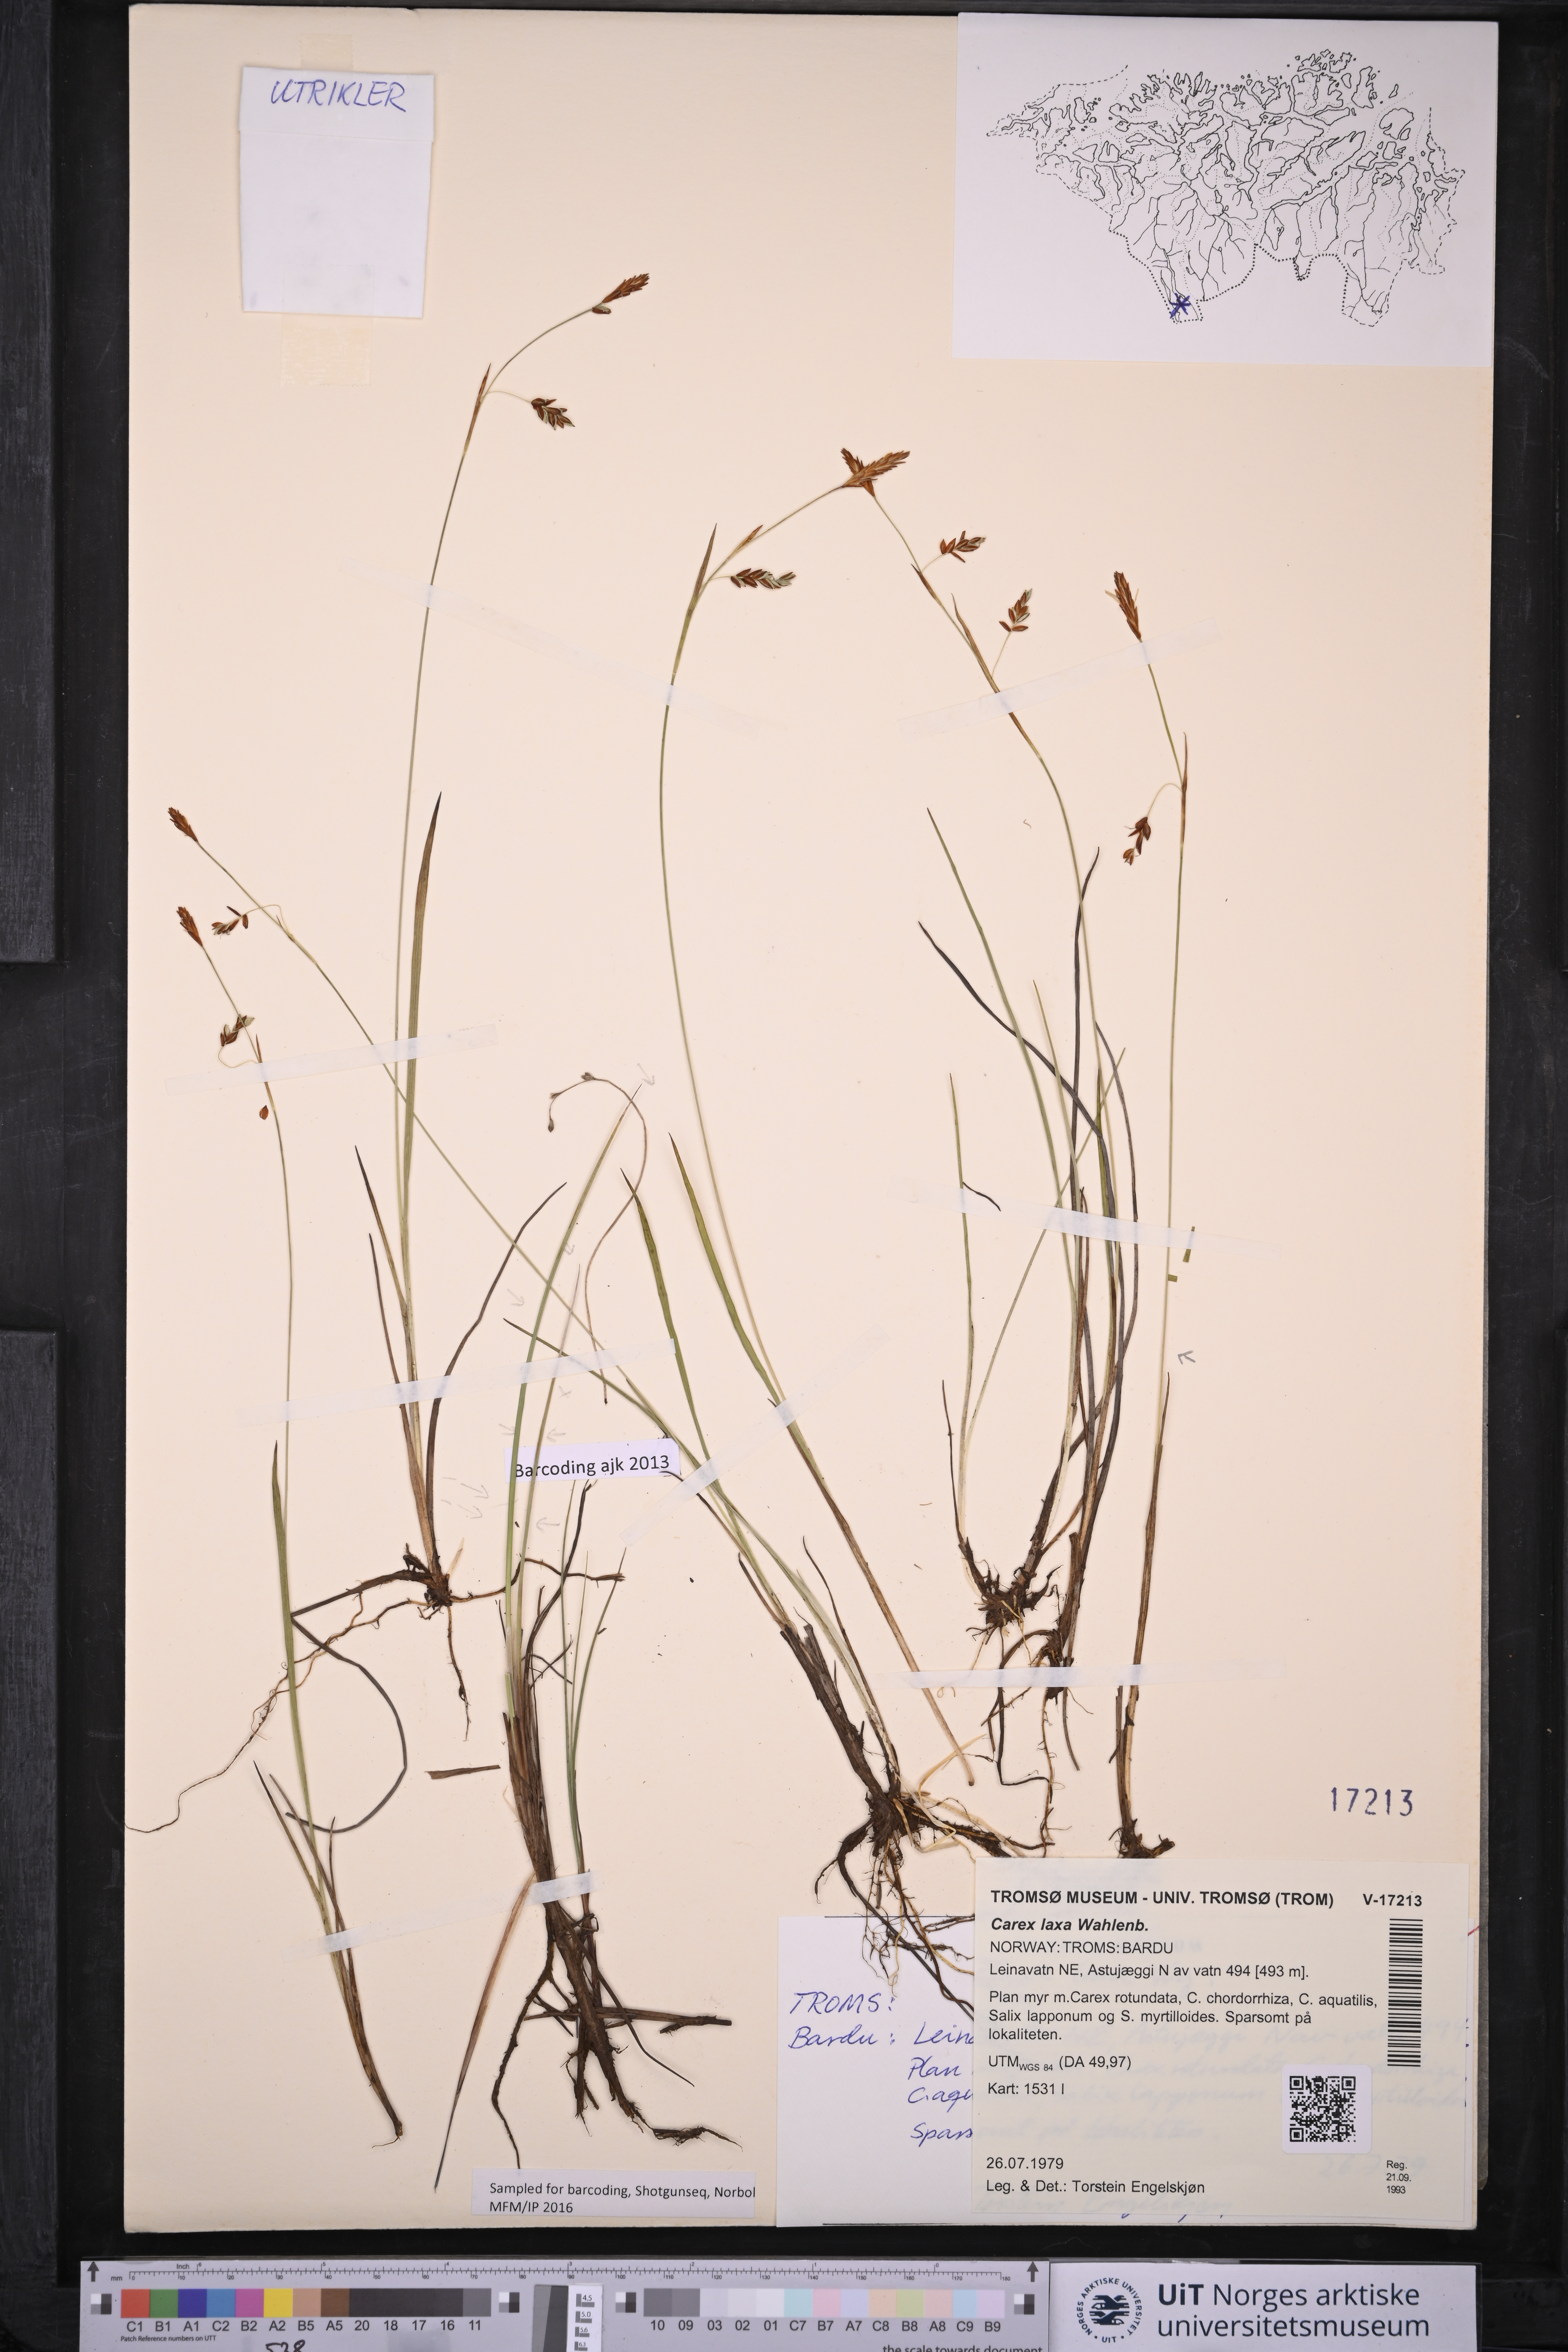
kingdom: Plantae
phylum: Tracheophyta
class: Liliopsida
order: Poales
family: Cyperaceae
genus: Carex
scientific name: Carex laxa
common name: Weak sedge
